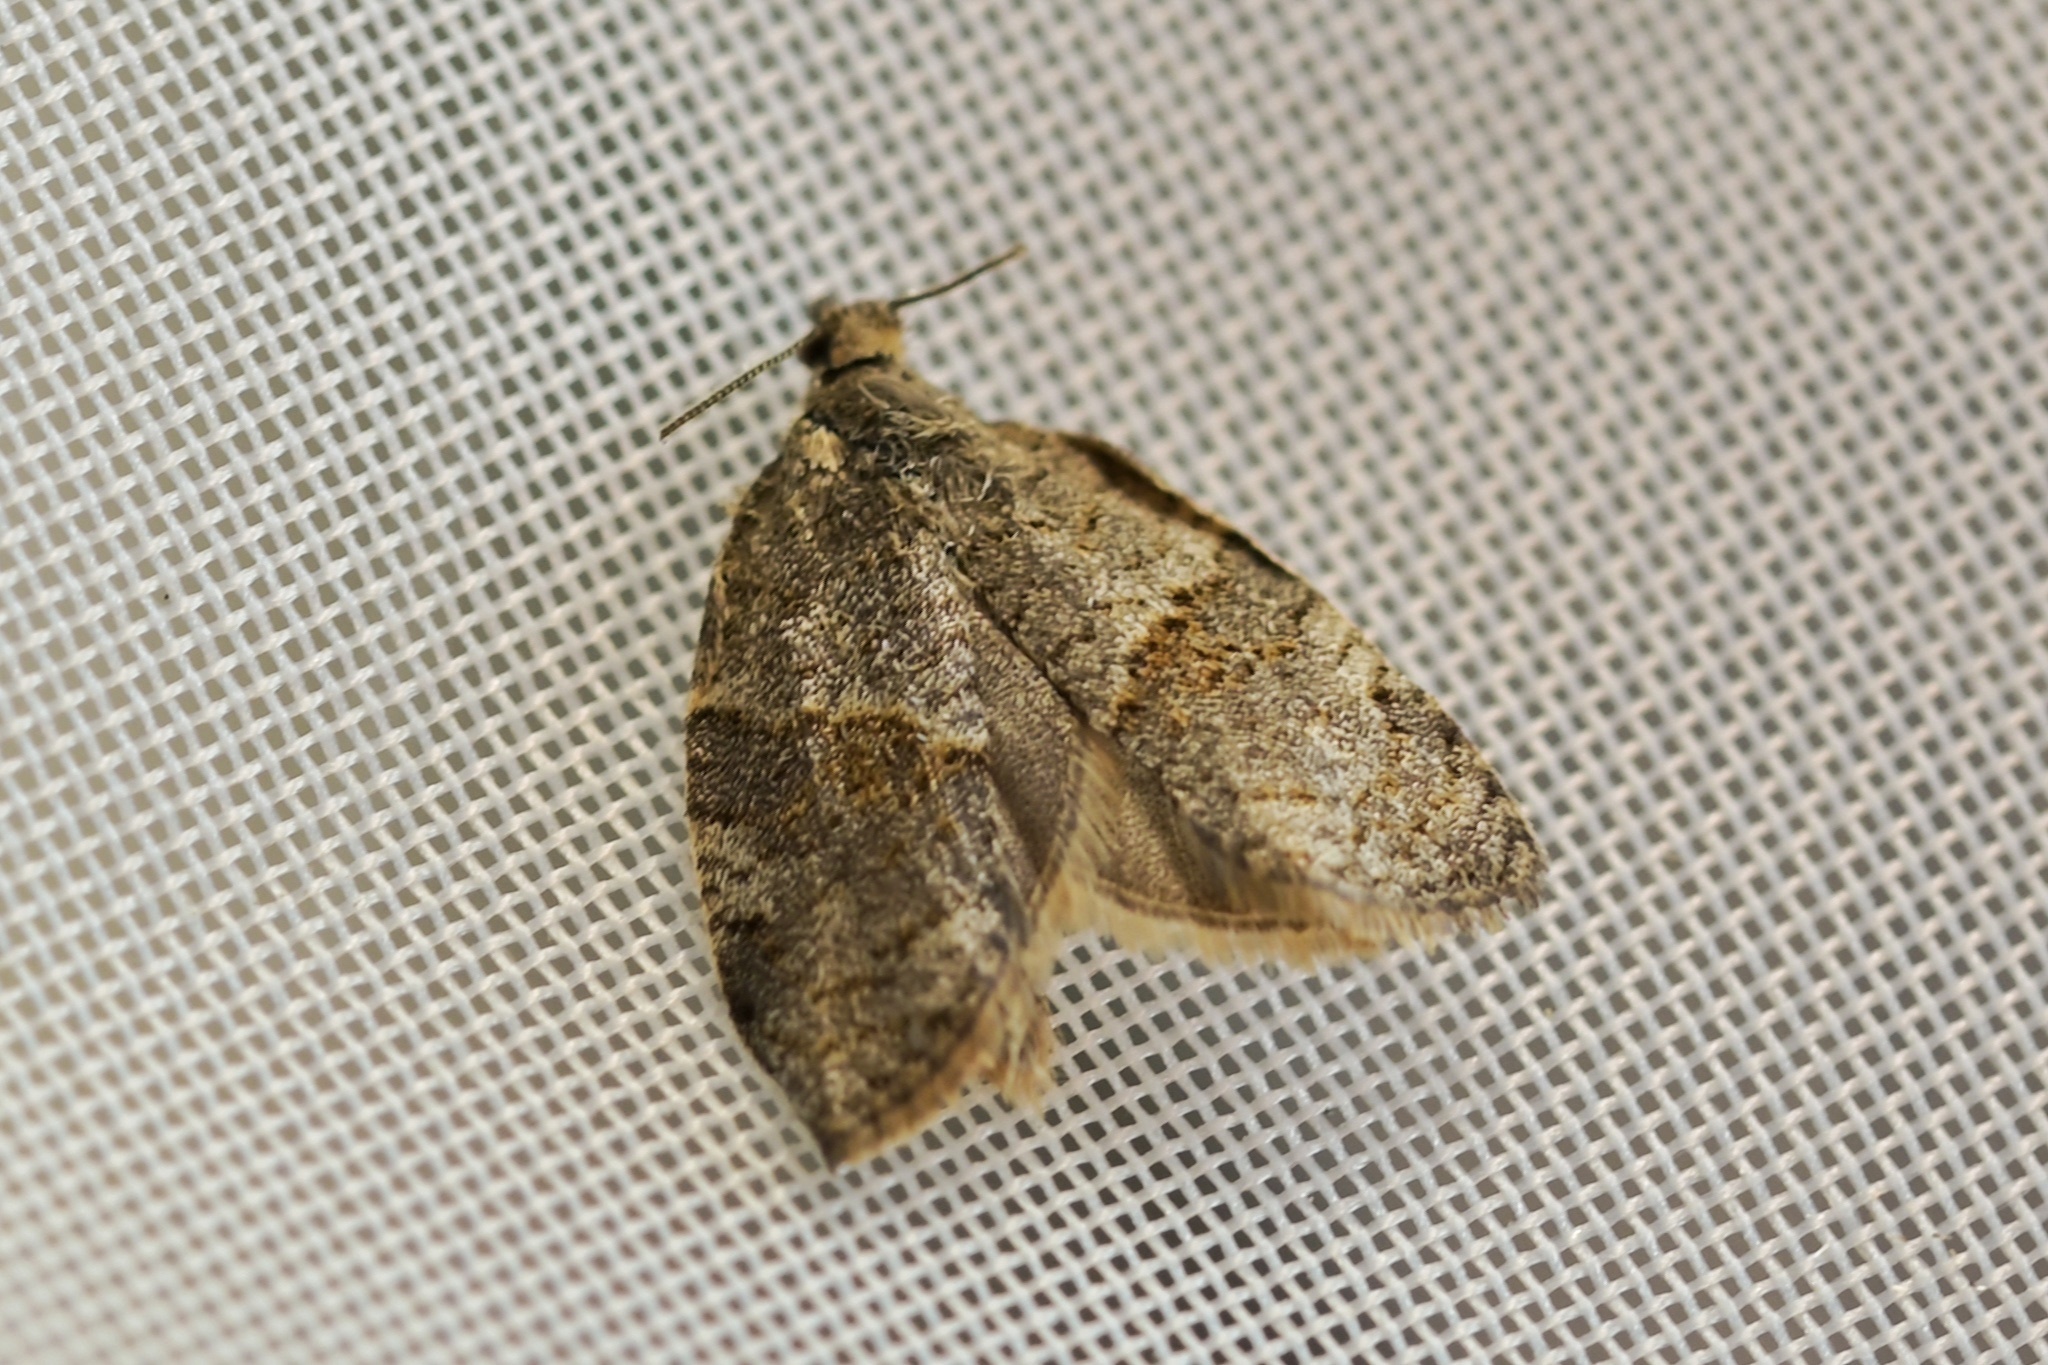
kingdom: Animalia
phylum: Arthropoda
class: Insecta
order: Lepidoptera
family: Tortricidae
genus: Syndemis
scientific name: Syndemis musculana
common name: Dark-barred twist
